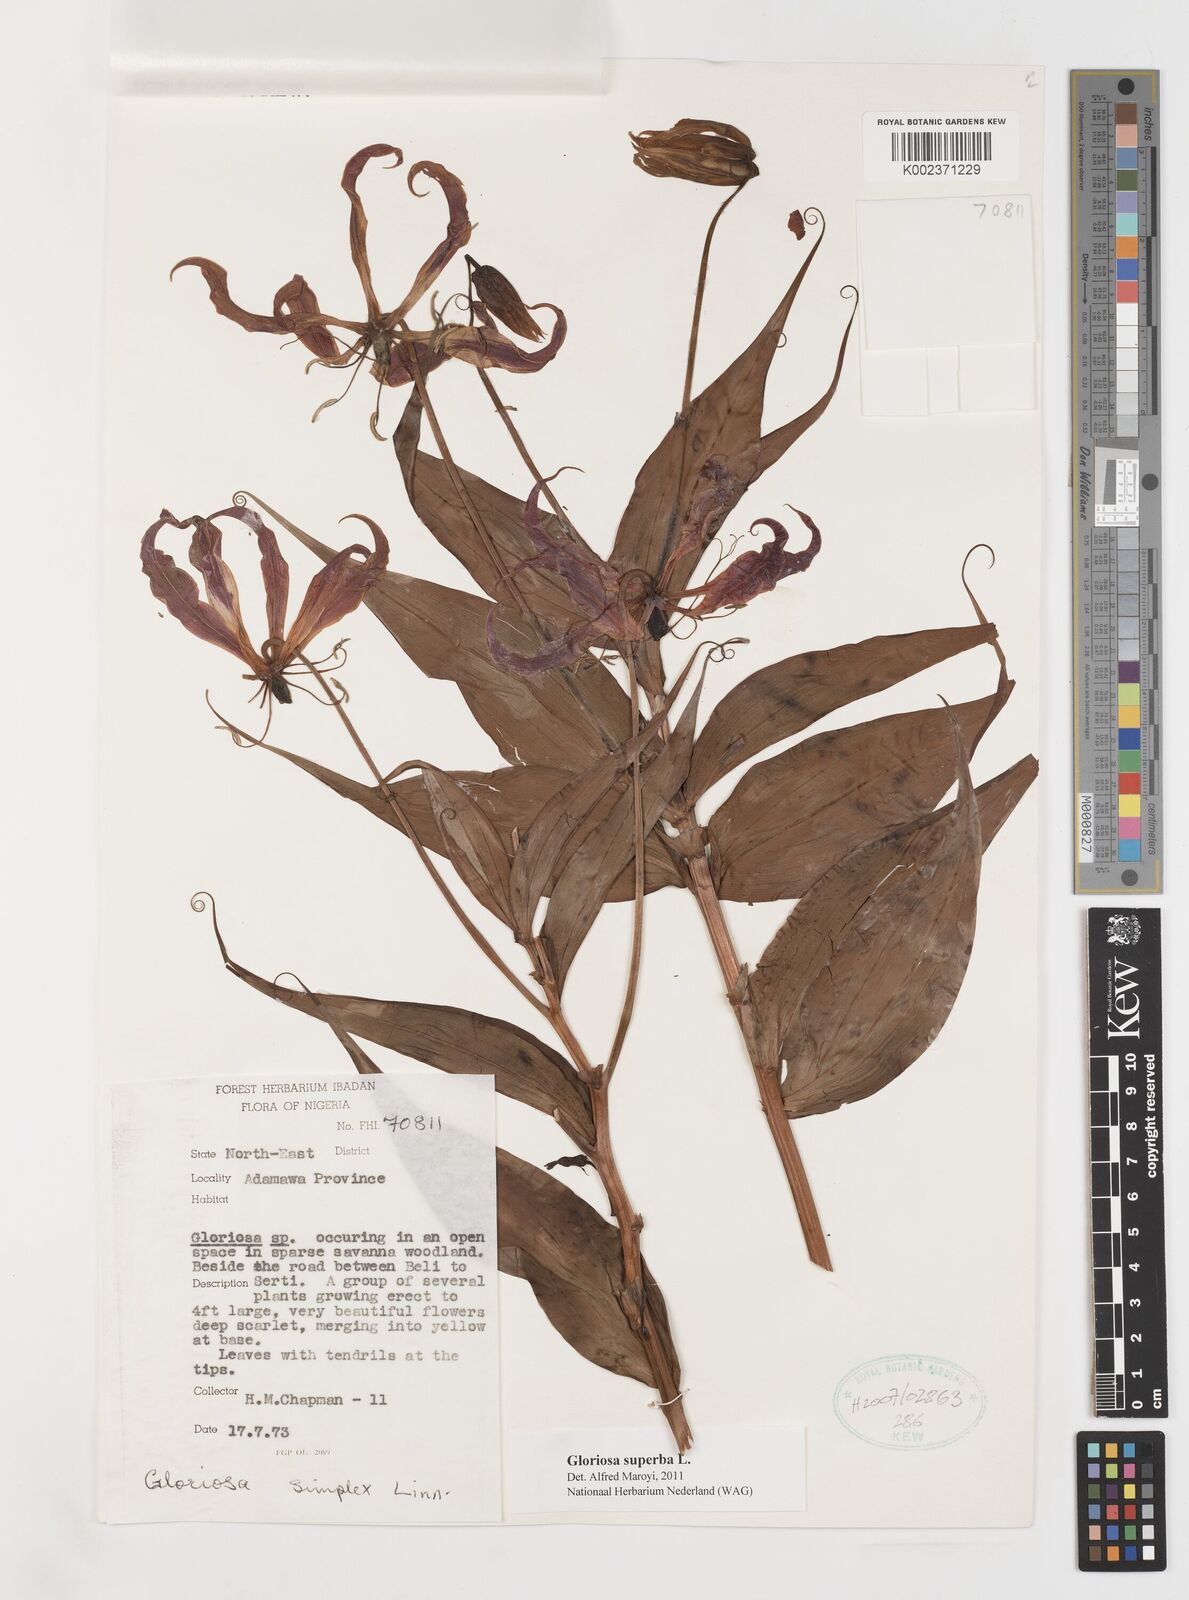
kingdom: Plantae
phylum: Tracheophyta
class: Liliopsida
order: Liliales
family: Colchicaceae
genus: Gloriosa
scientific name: Gloriosa superba
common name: Flame lily
